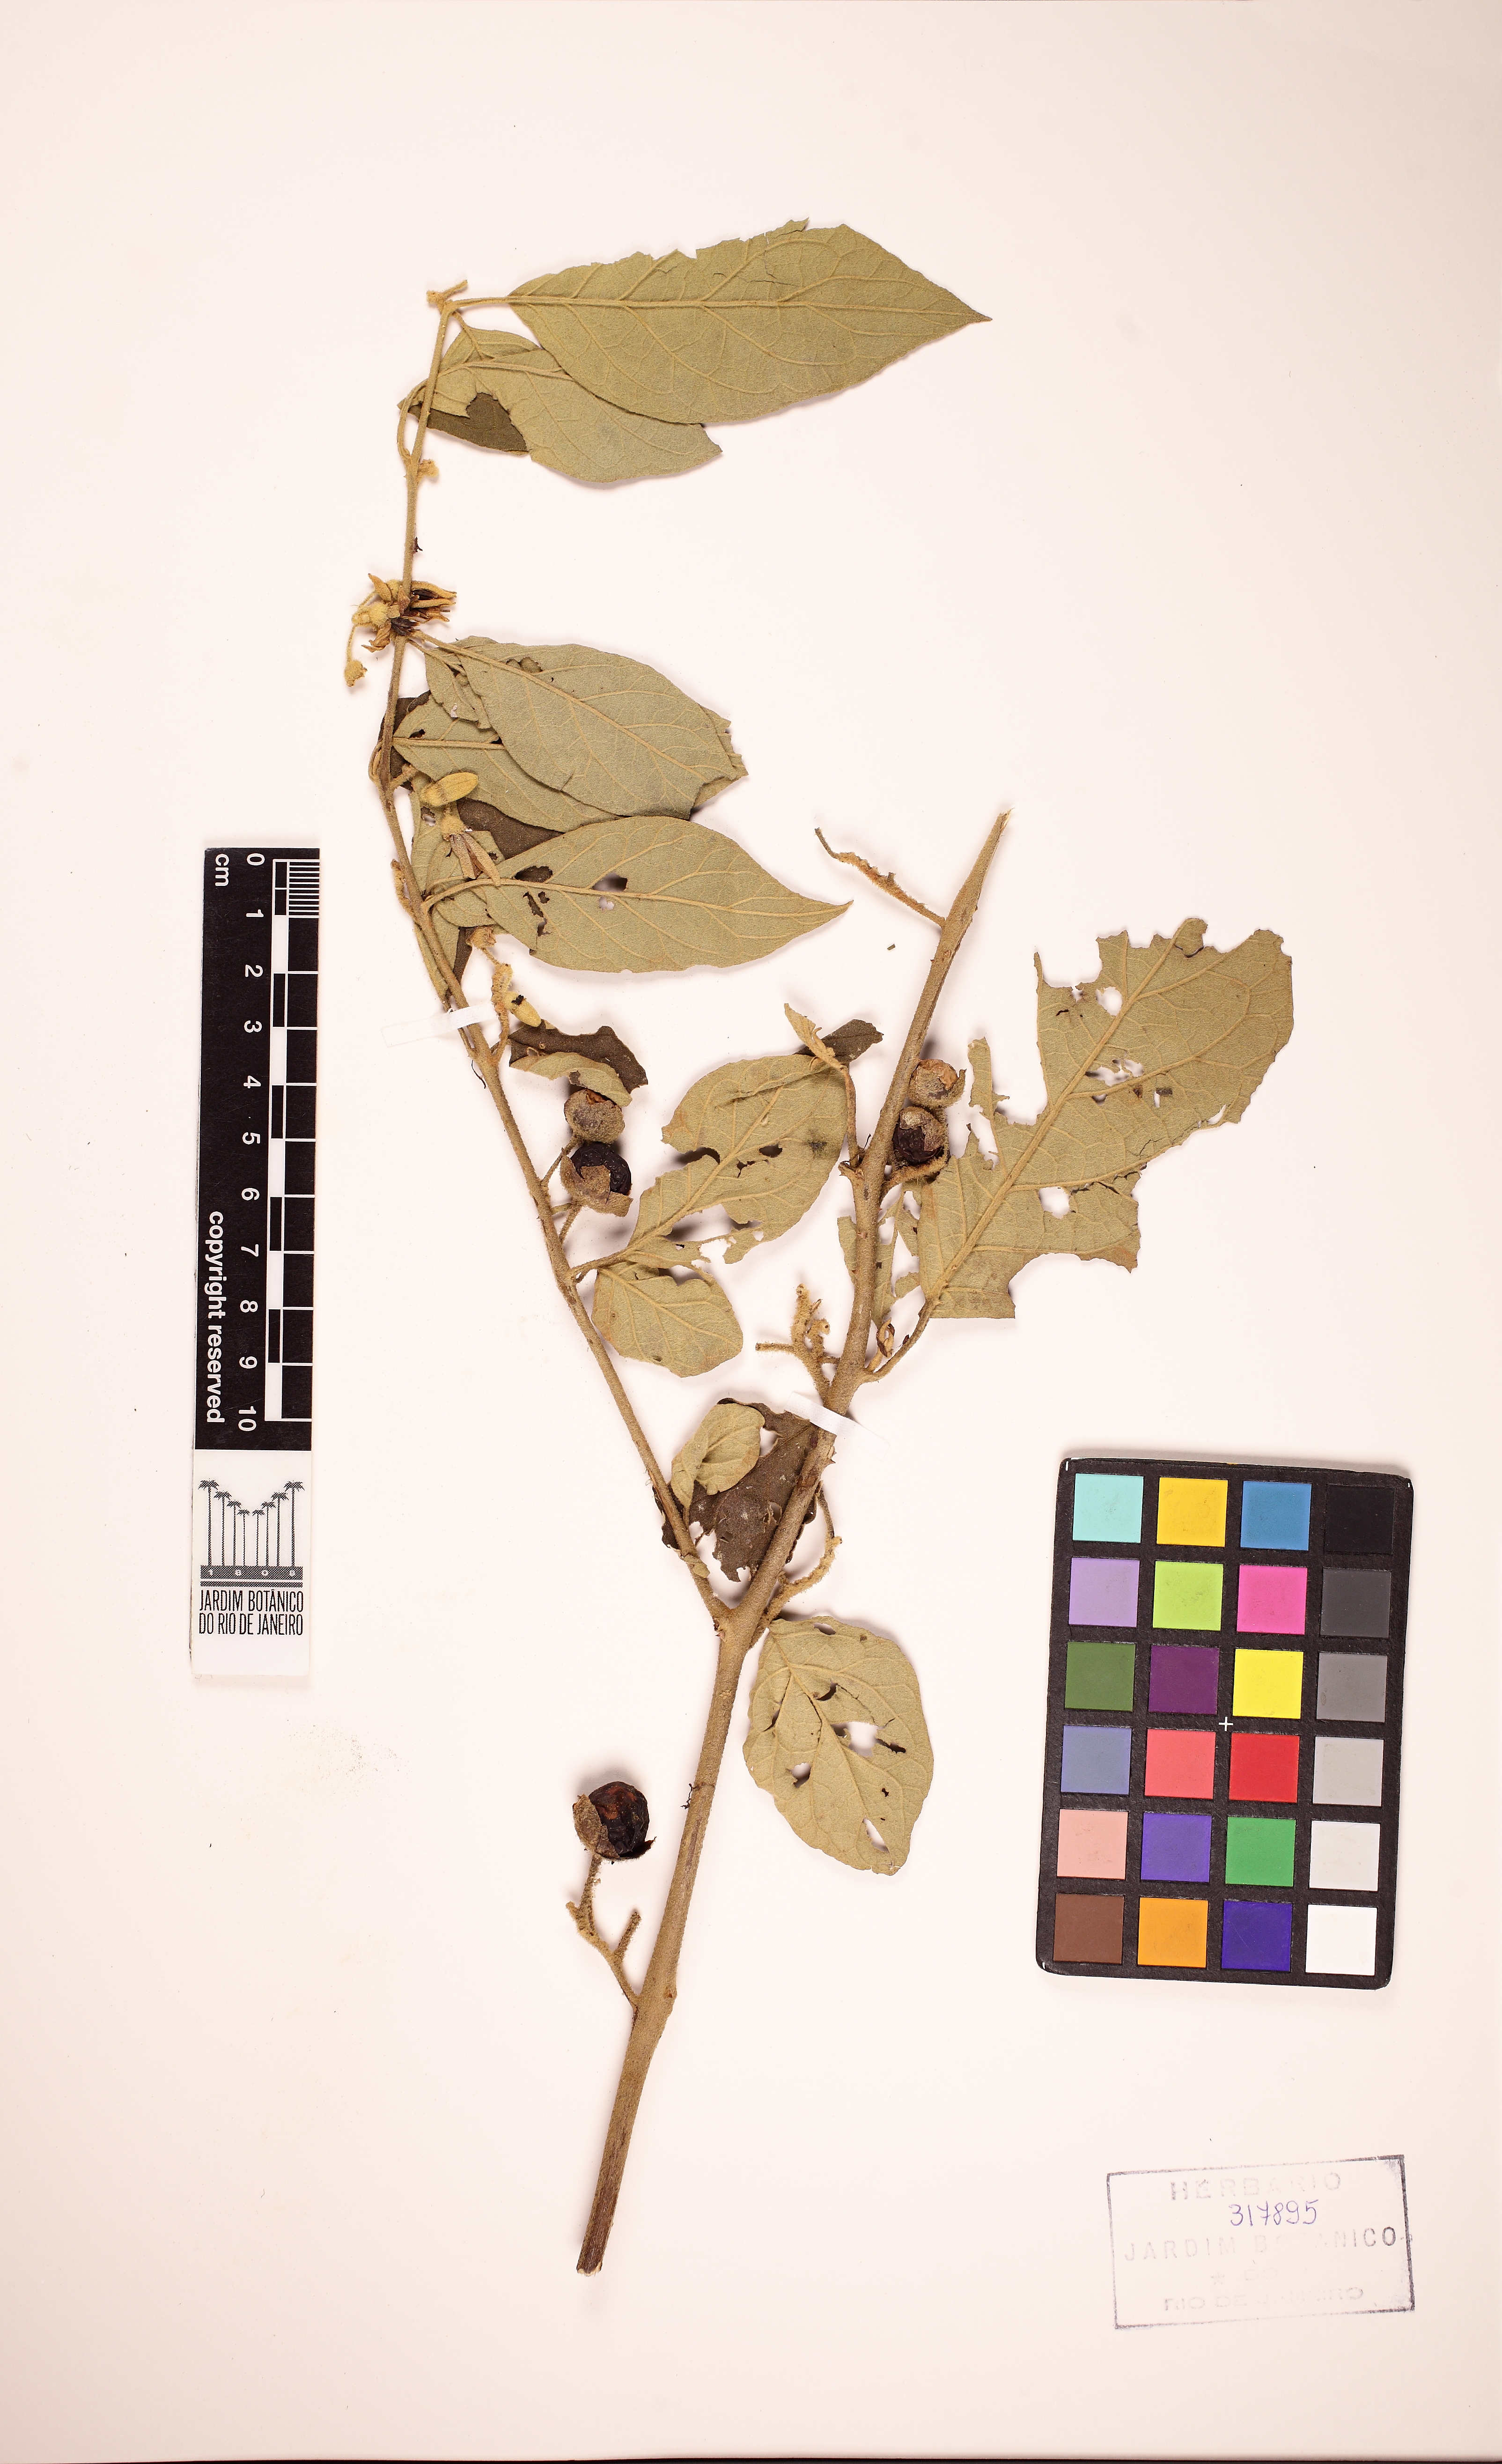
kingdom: Plantae
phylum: Tracheophyta
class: Magnoliopsida
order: Solanales
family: Solanaceae
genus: Solanum
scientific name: Solanum piluliferum
